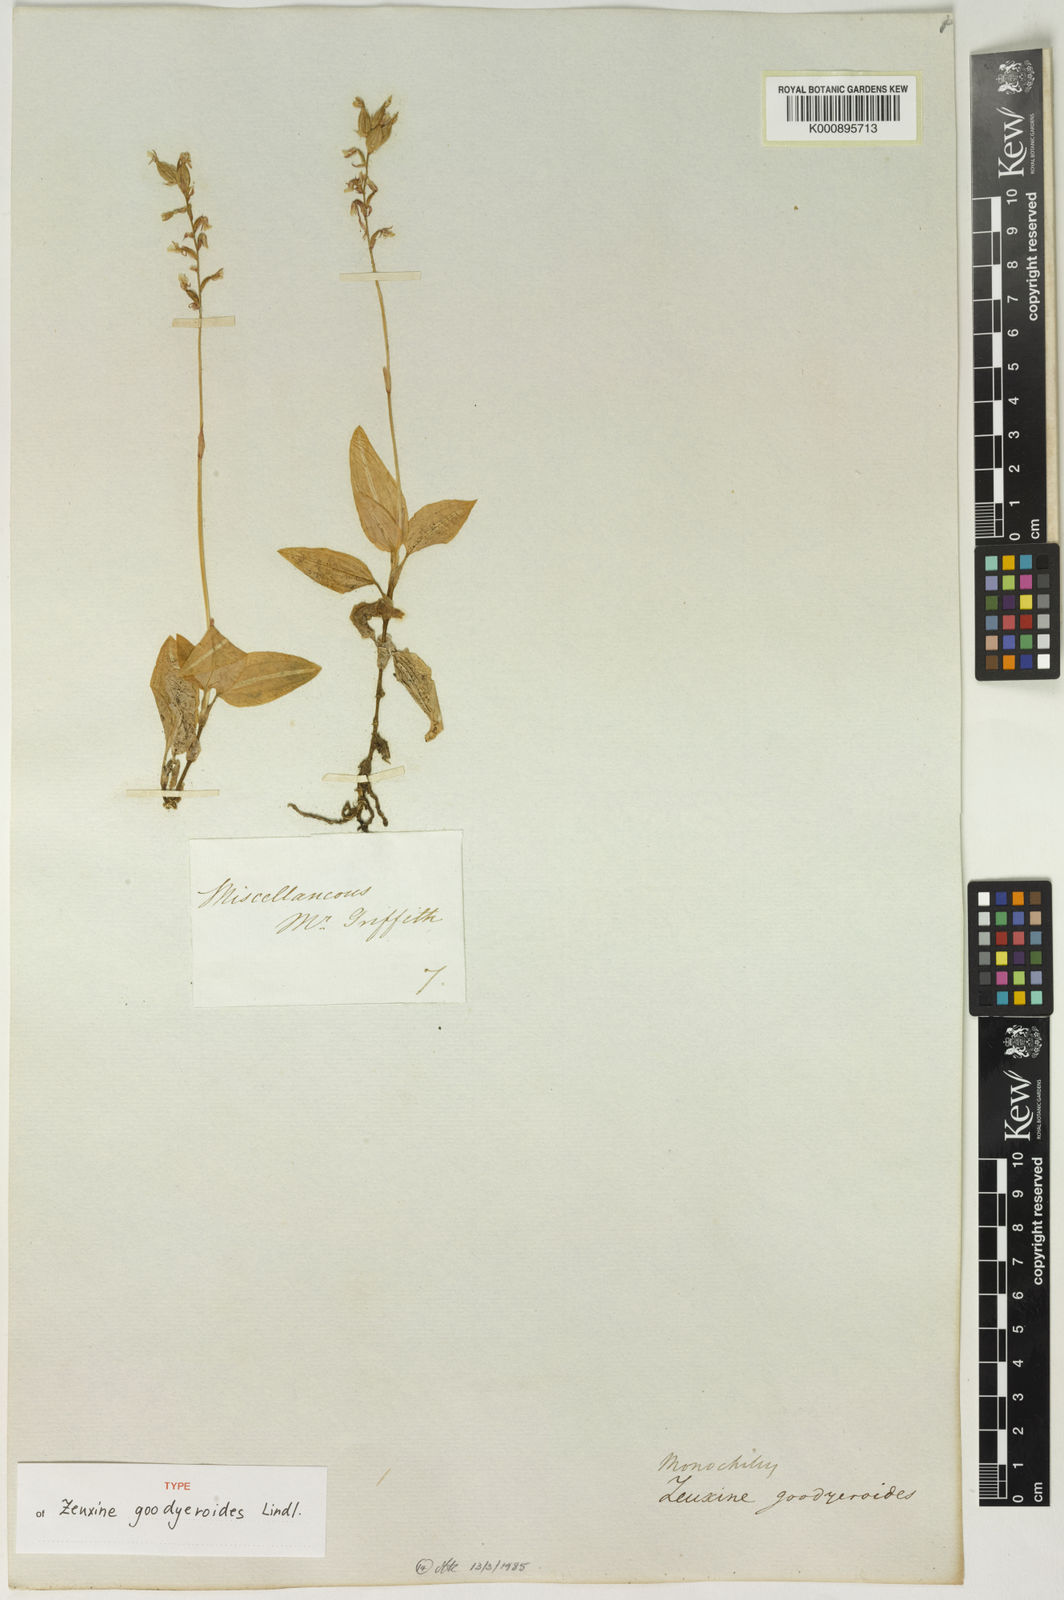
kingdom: Plantae
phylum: Tracheophyta
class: Liliopsida
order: Asparagales
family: Orchidaceae
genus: Zeuxine
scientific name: Zeuxine goodyeroides
